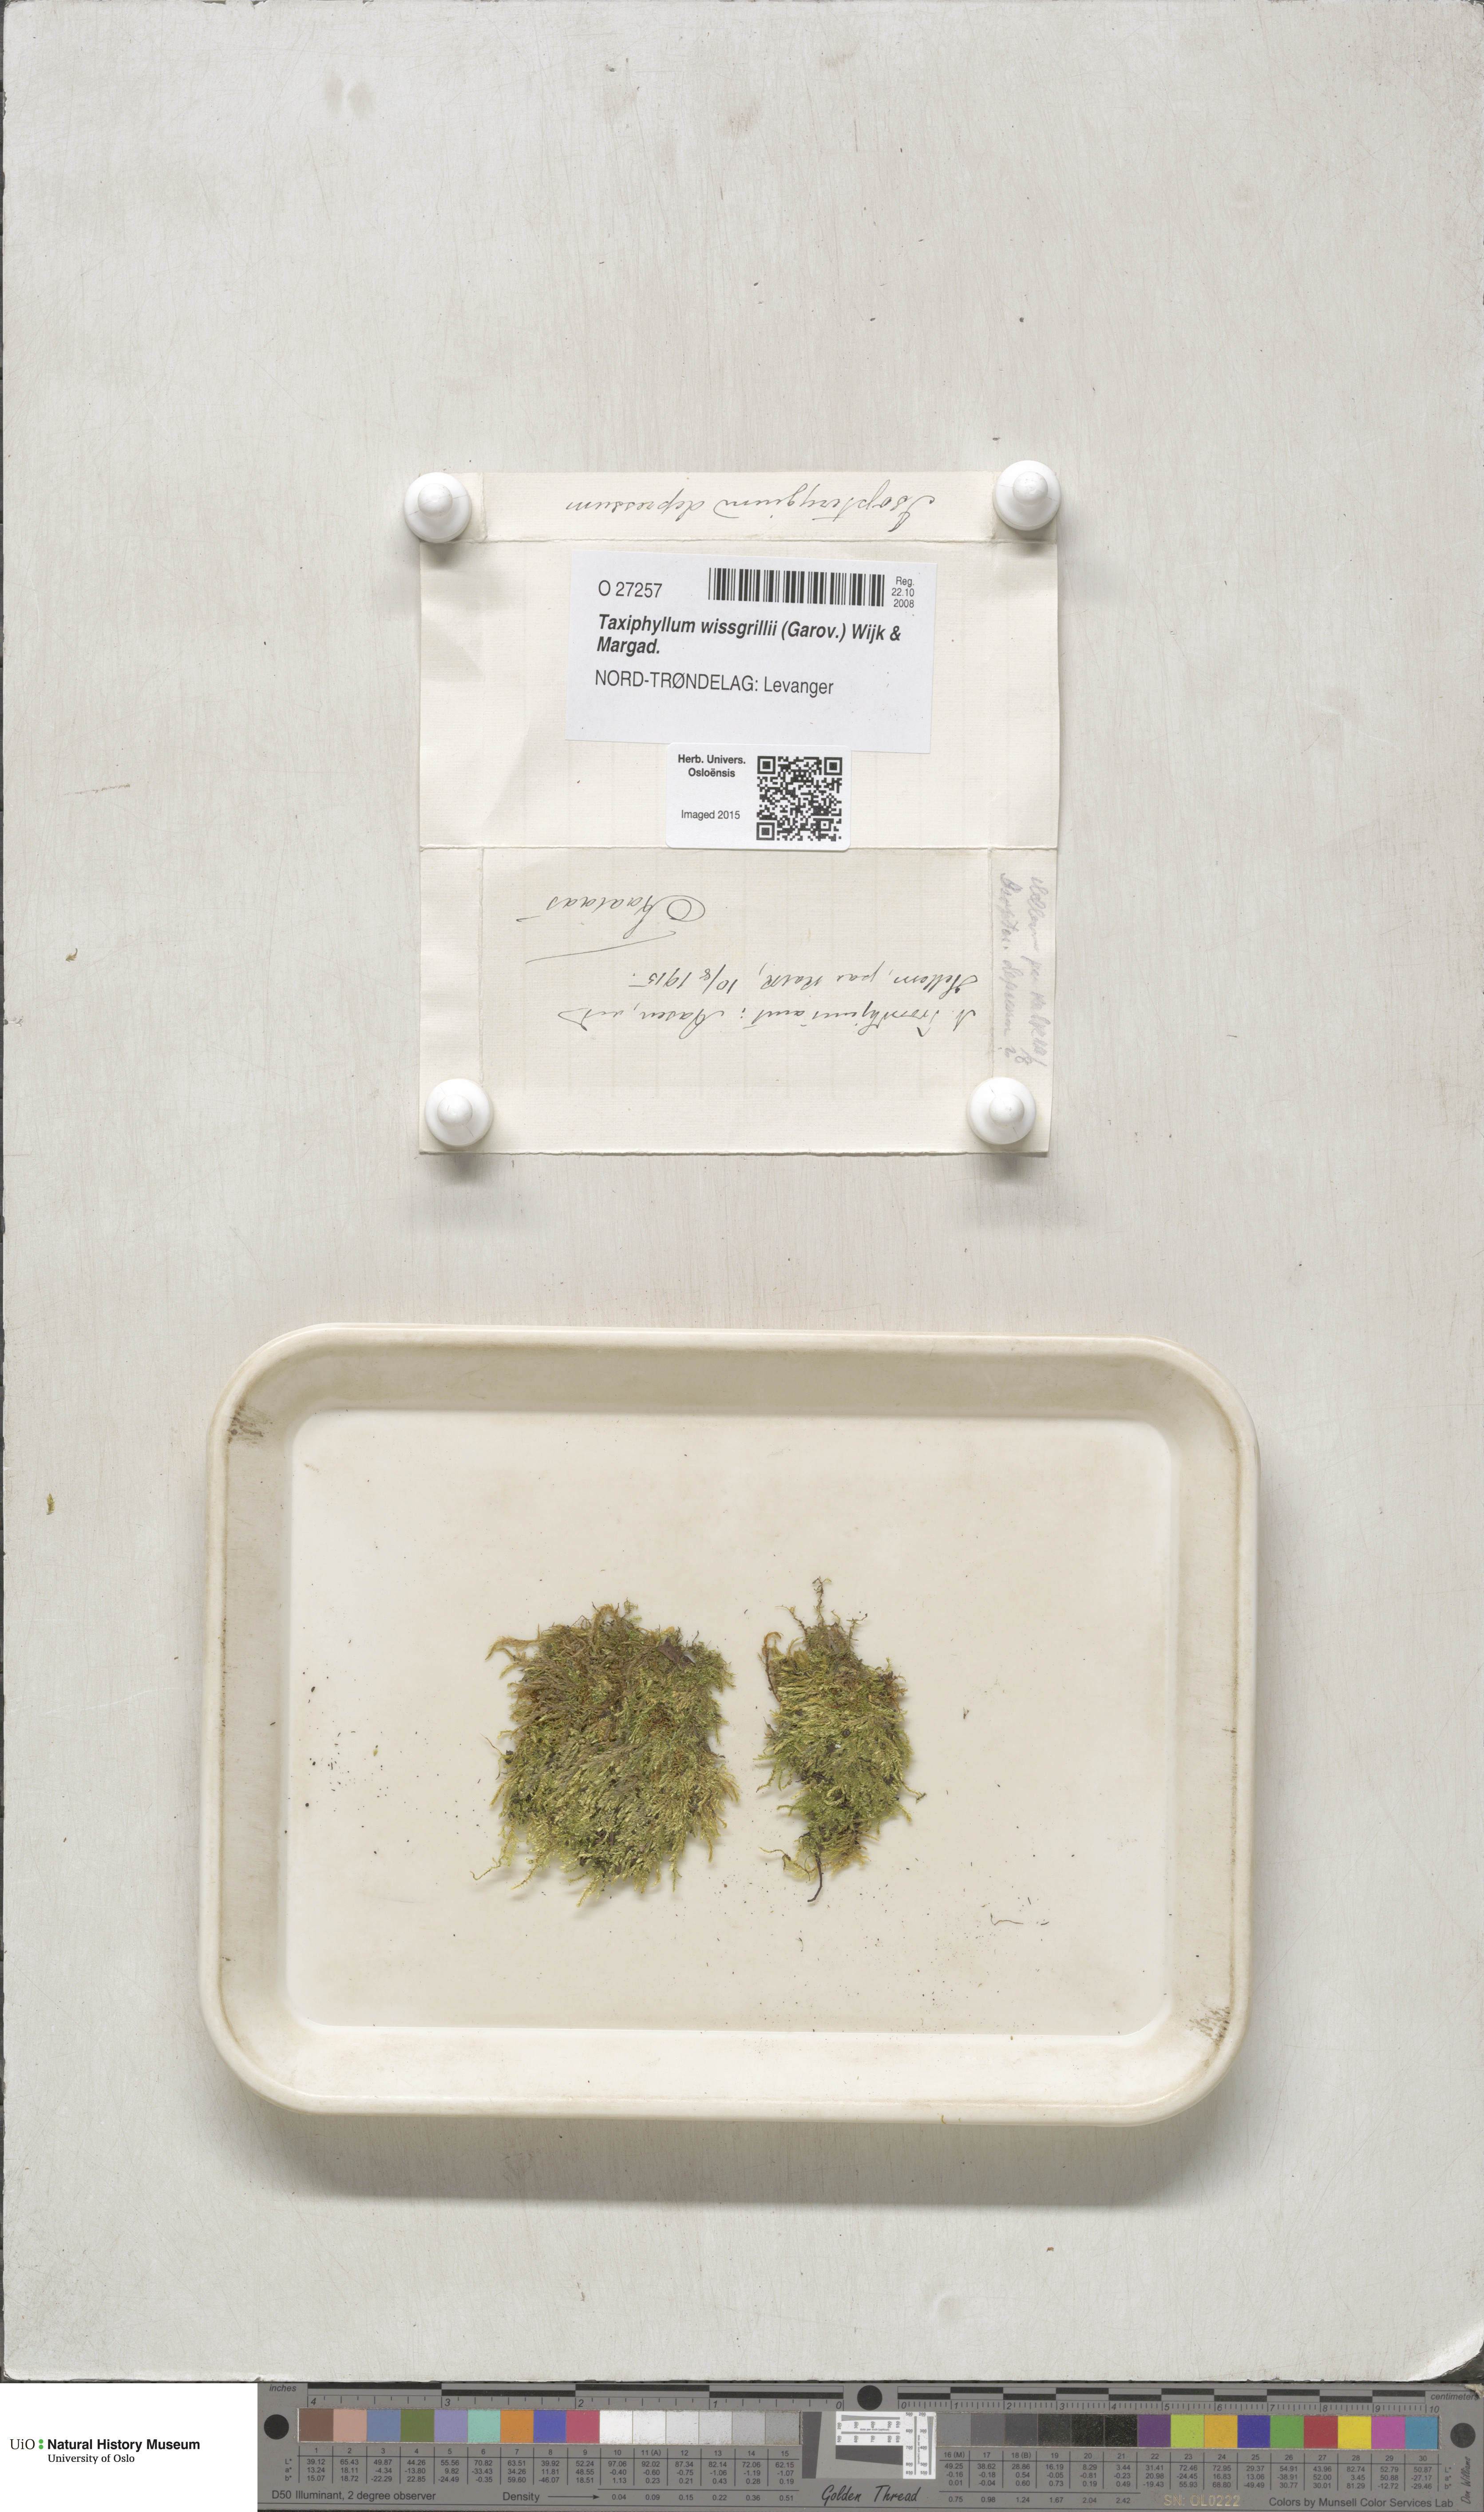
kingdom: Plantae
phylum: Bryophyta
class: Bryopsida
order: Hypnales
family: Taxiphyllaceae
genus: Taxiphyllum
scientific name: Taxiphyllum wissgrillii
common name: Depressed feather-moss
